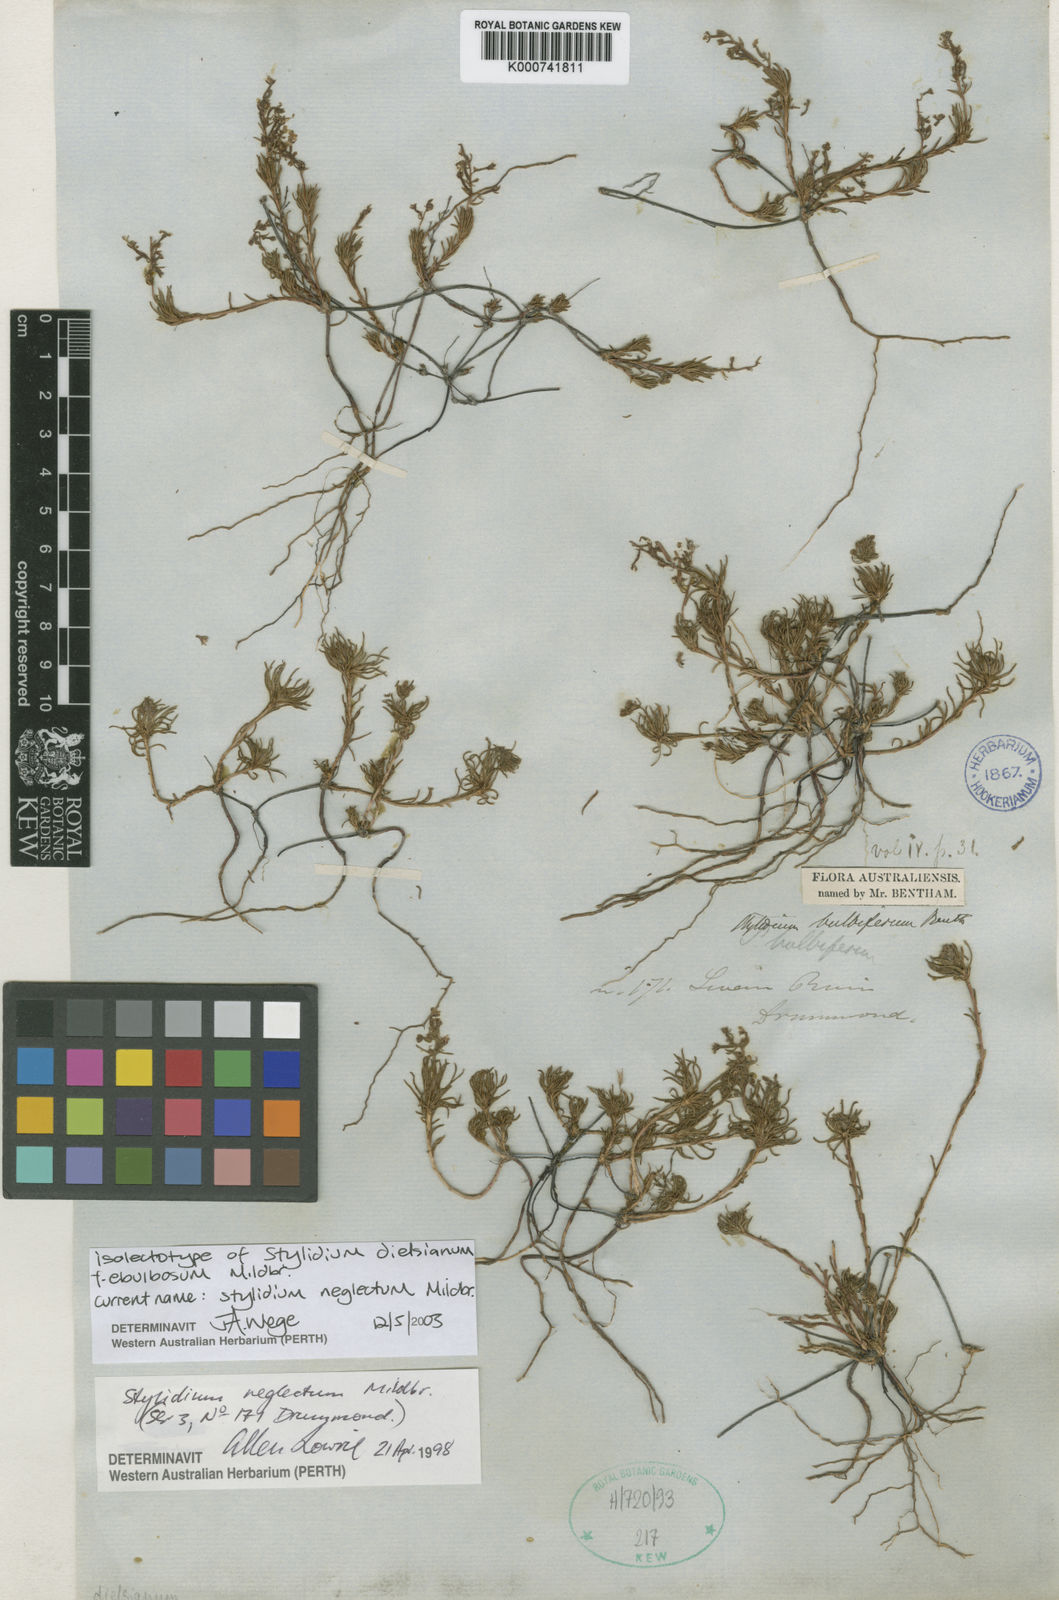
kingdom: Plantae
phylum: Tracheophyta
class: Magnoliopsida
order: Asterales
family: Stylidiaceae
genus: Stylidium
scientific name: Stylidium neglectum
